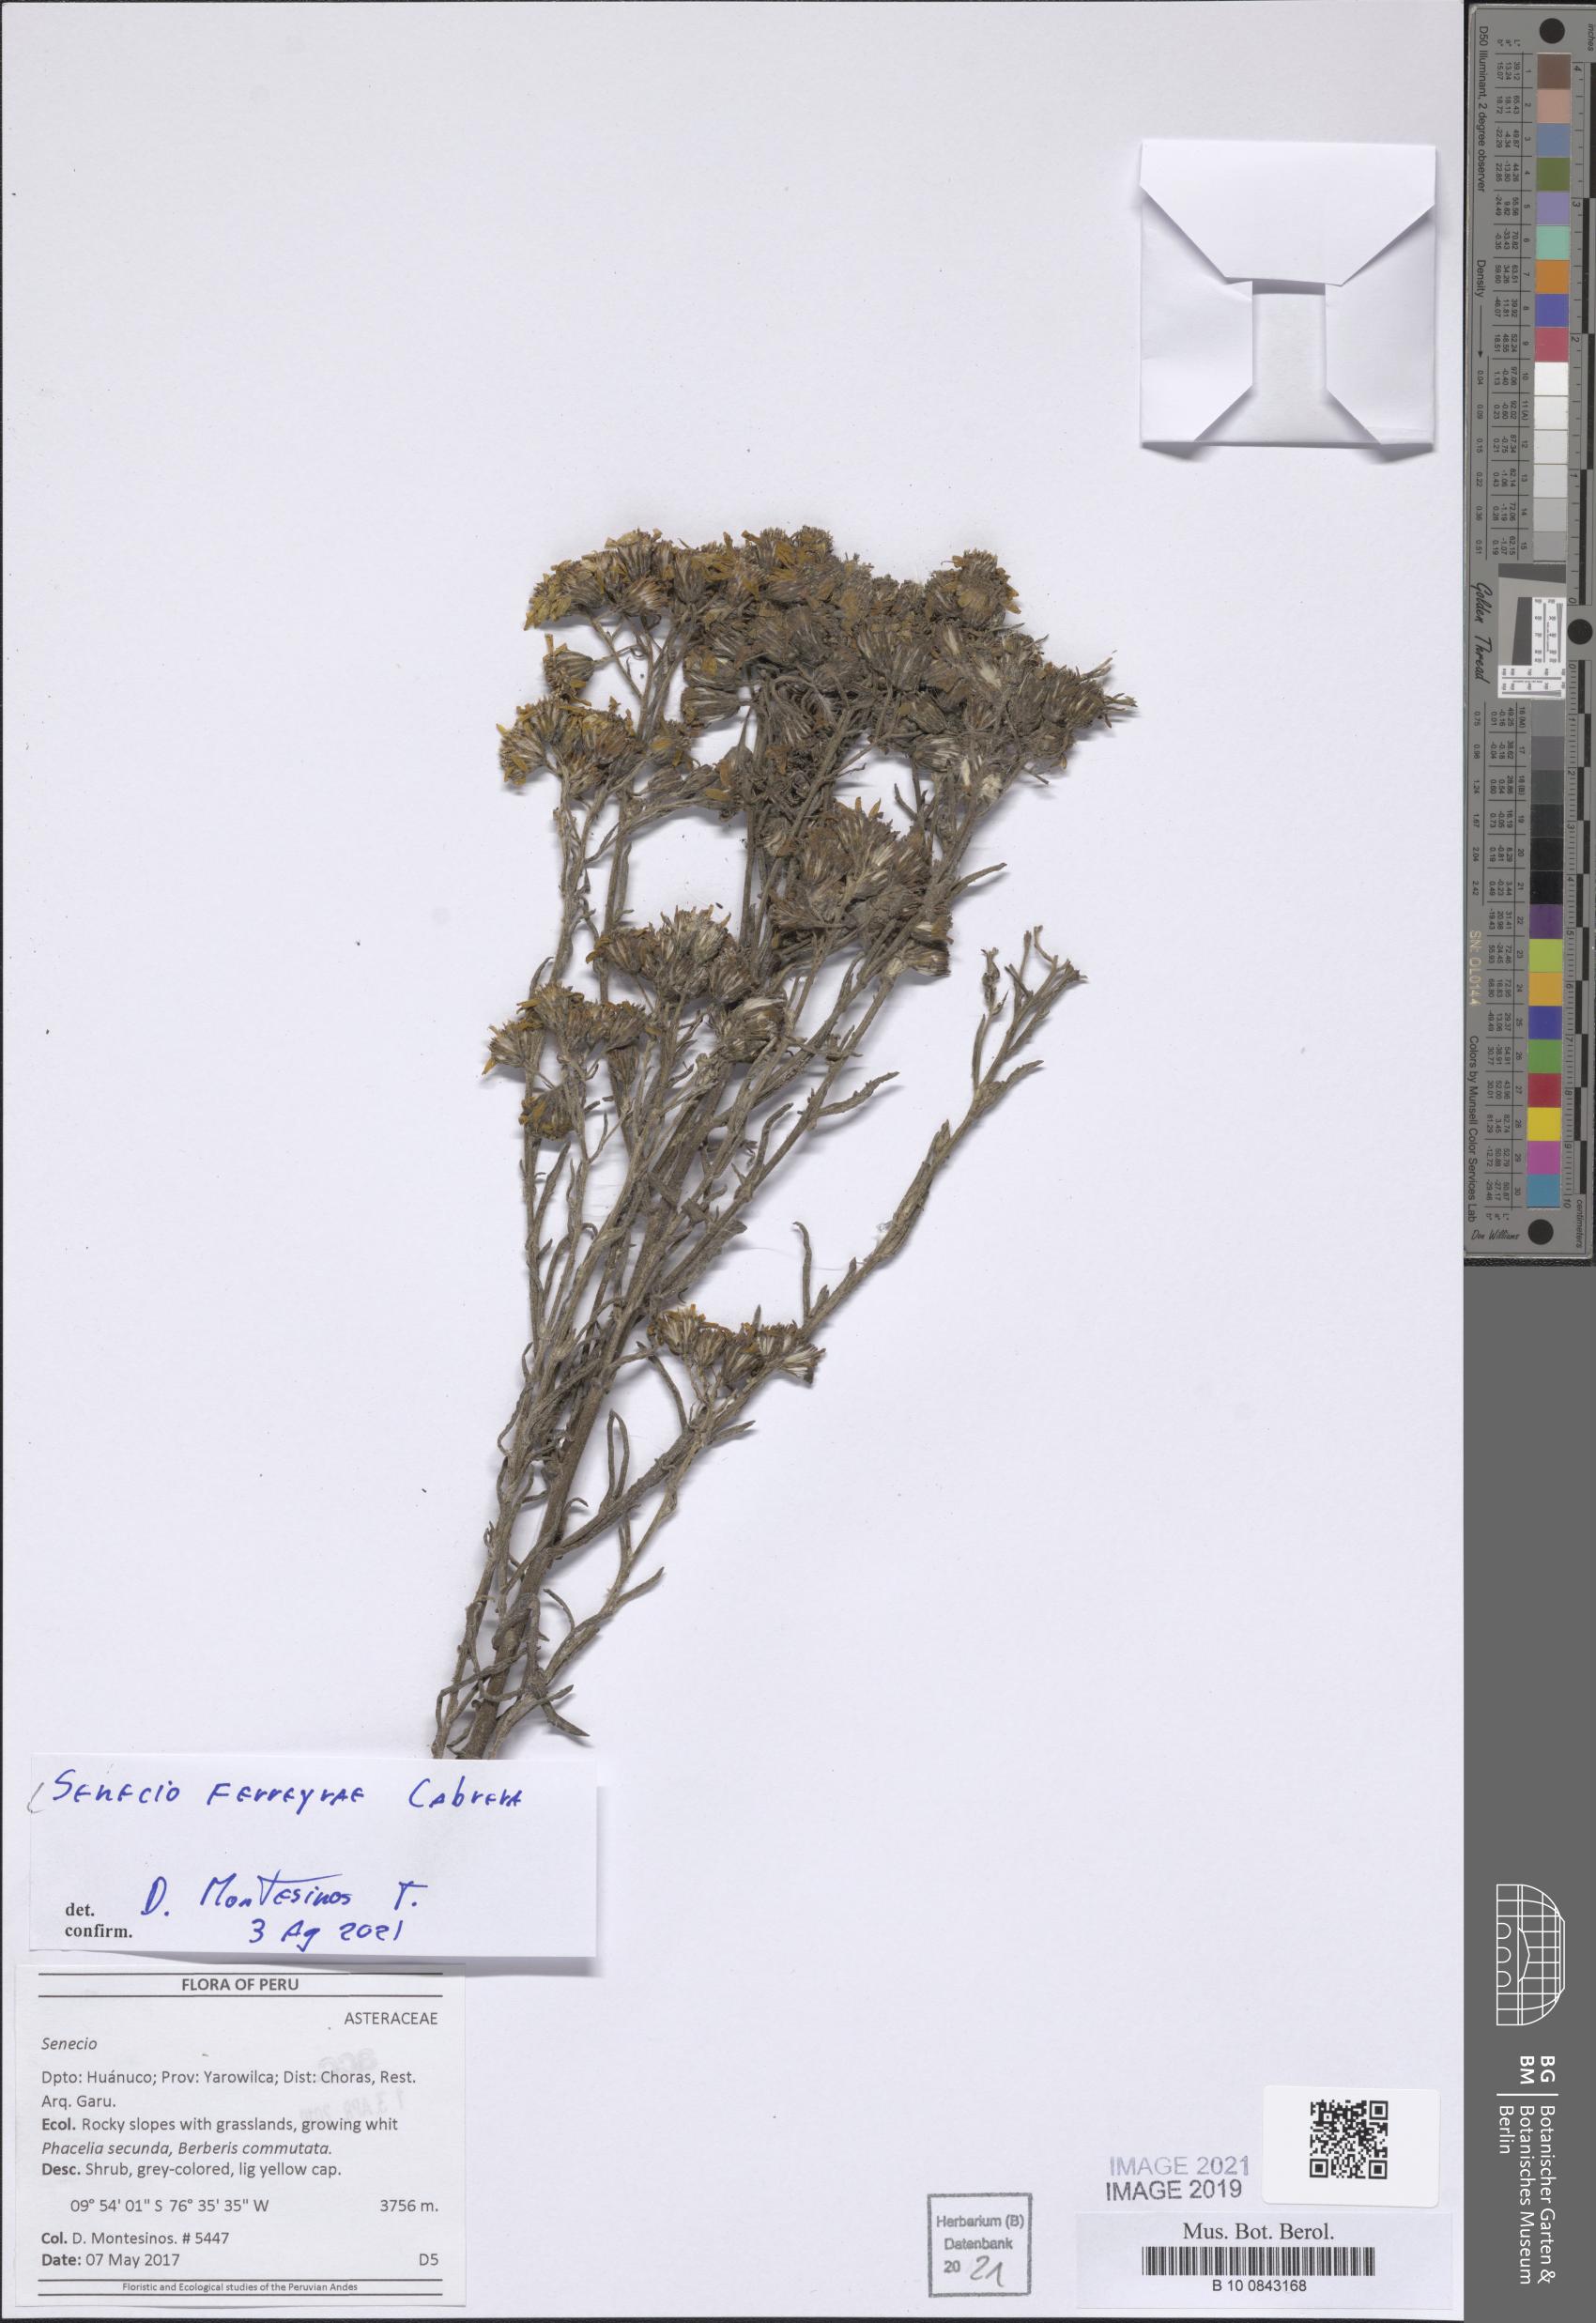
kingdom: Plantae
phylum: Tracheophyta
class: Magnoliopsida
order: Asterales
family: Asteraceae
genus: Senecio
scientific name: Senecio ferreyrae
